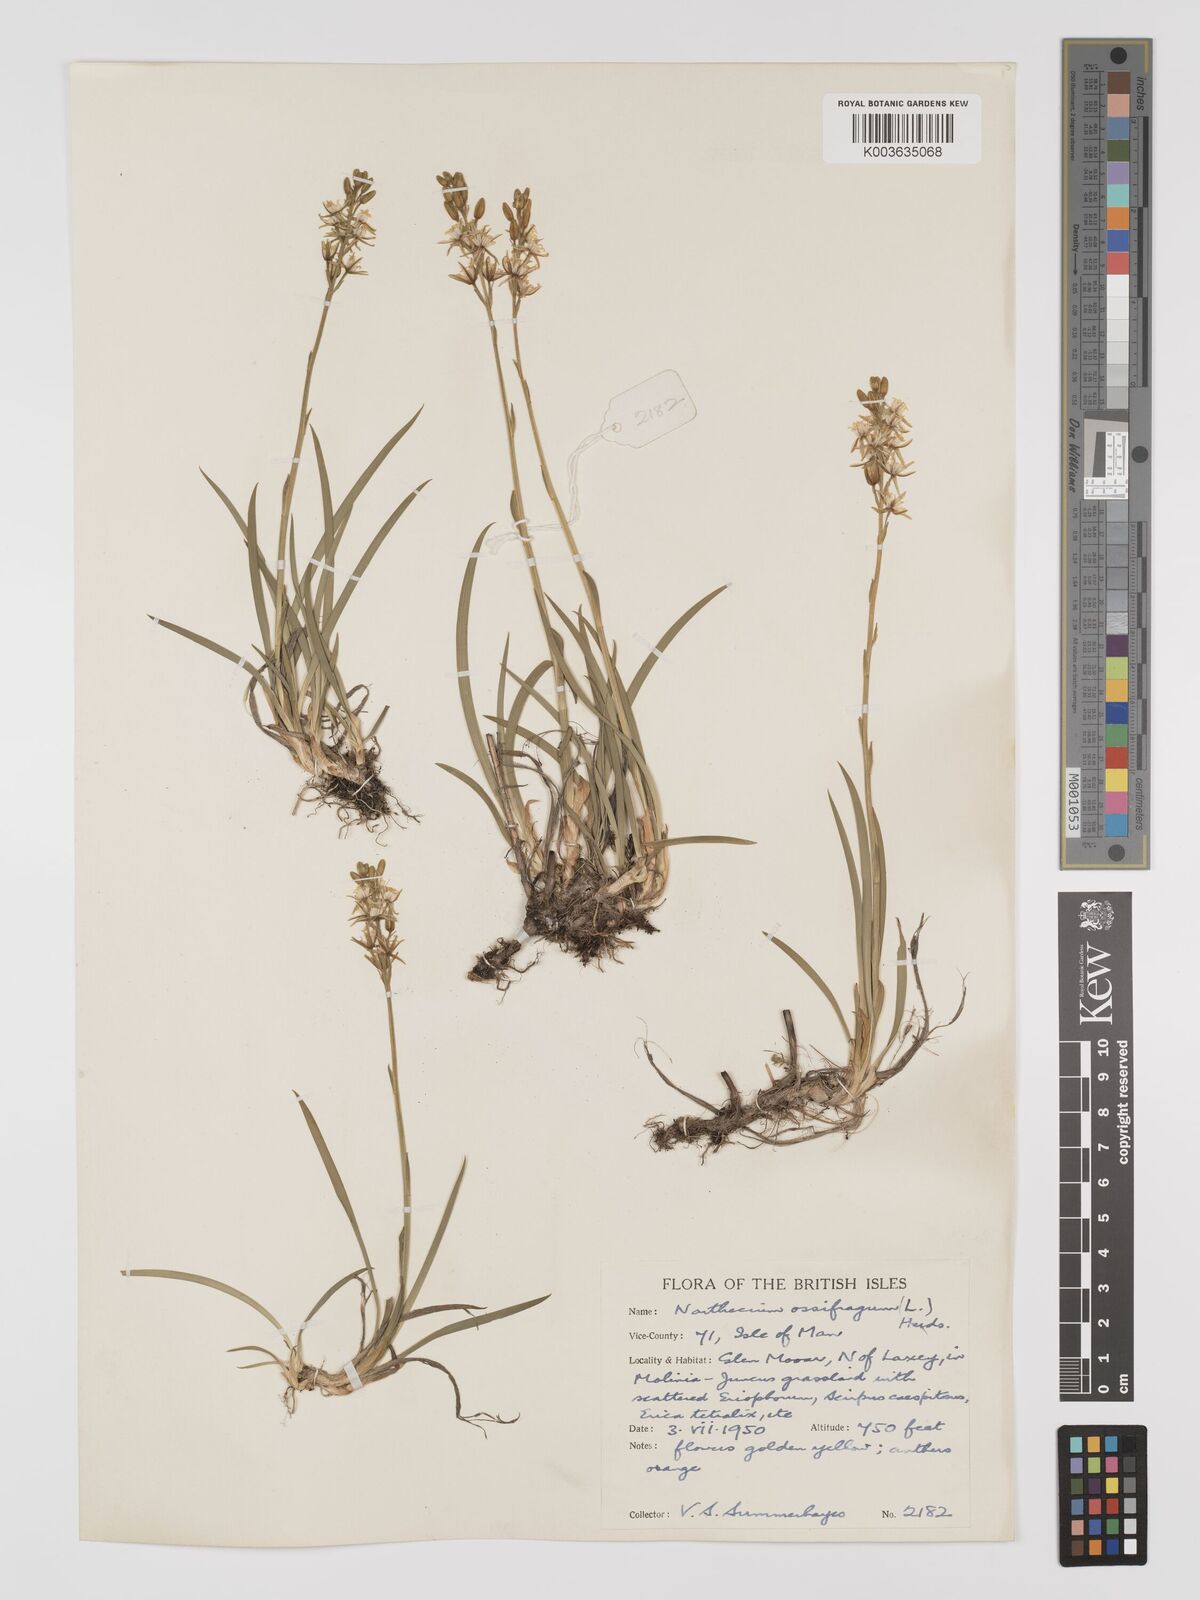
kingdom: Plantae
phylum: Tracheophyta
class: Liliopsida
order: Dioscoreales
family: Nartheciaceae
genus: Narthecium
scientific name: Narthecium ossifragum
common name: Bog asphodel
